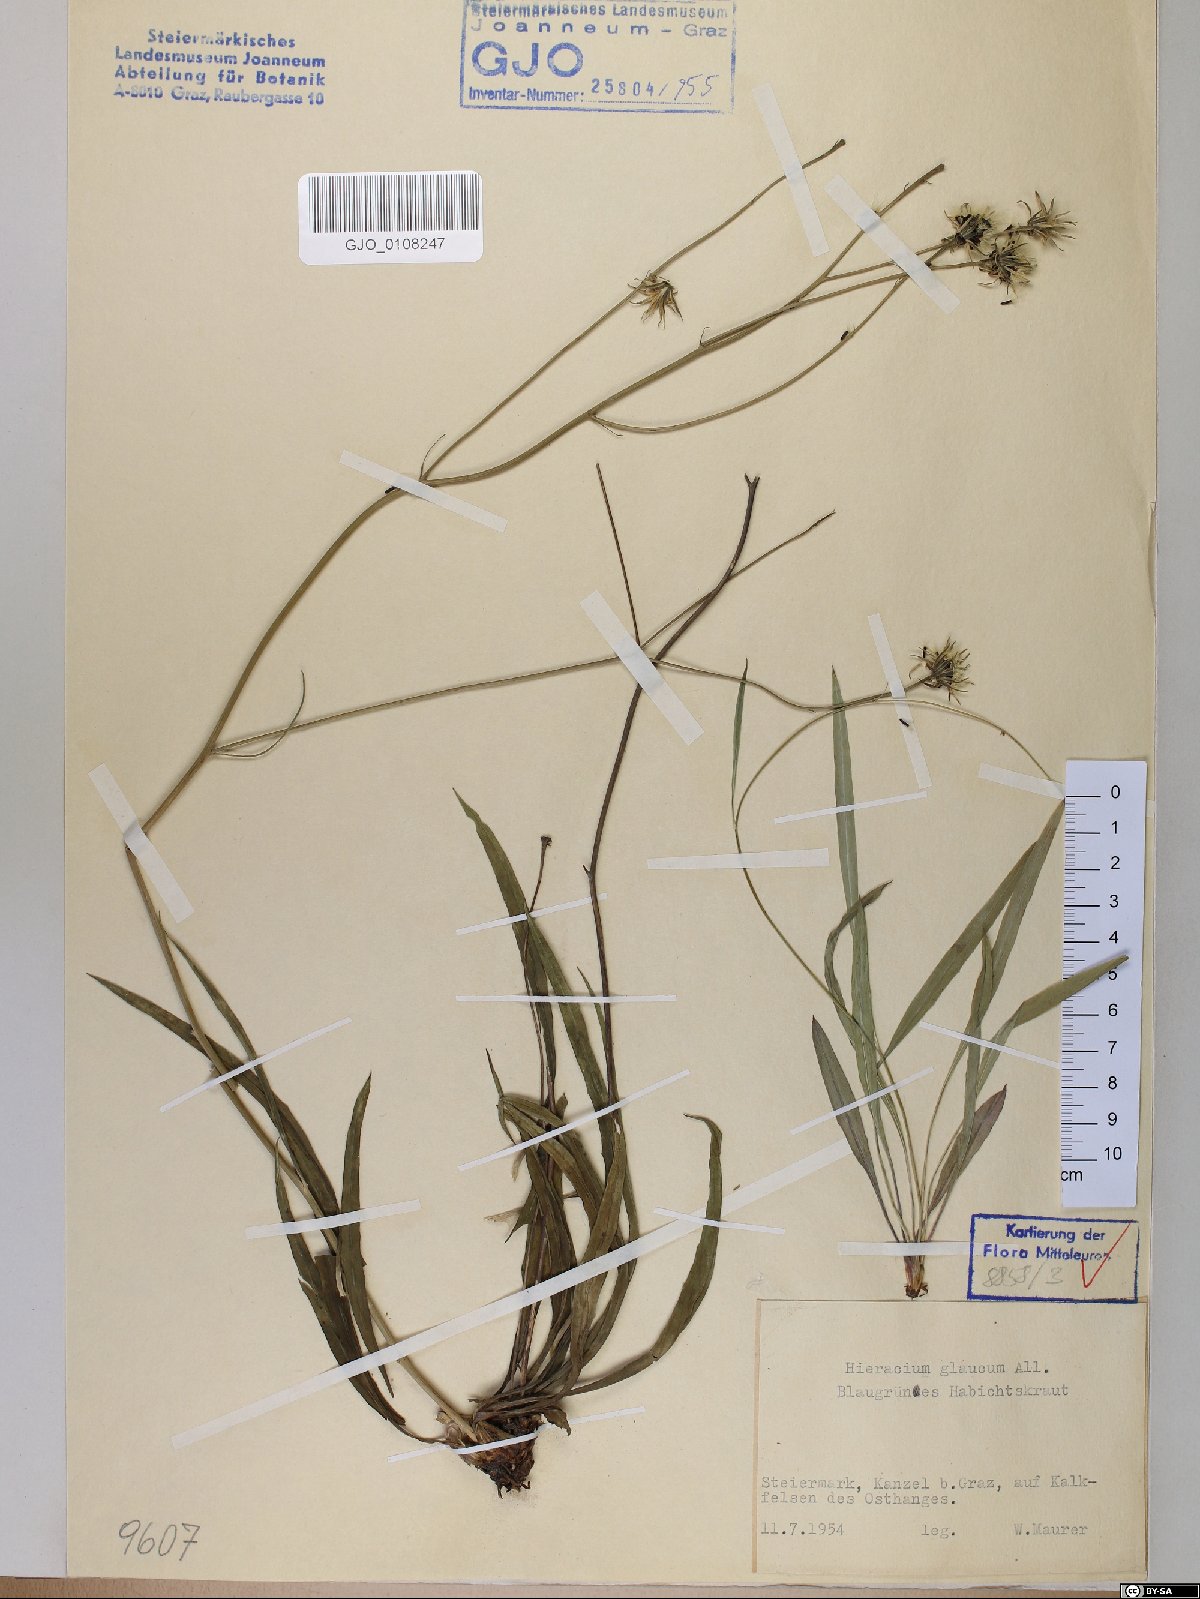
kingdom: Plantae
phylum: Tracheophyta
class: Magnoliopsida
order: Asterales
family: Asteraceae
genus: Hieracium
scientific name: Hieracium glaucum
